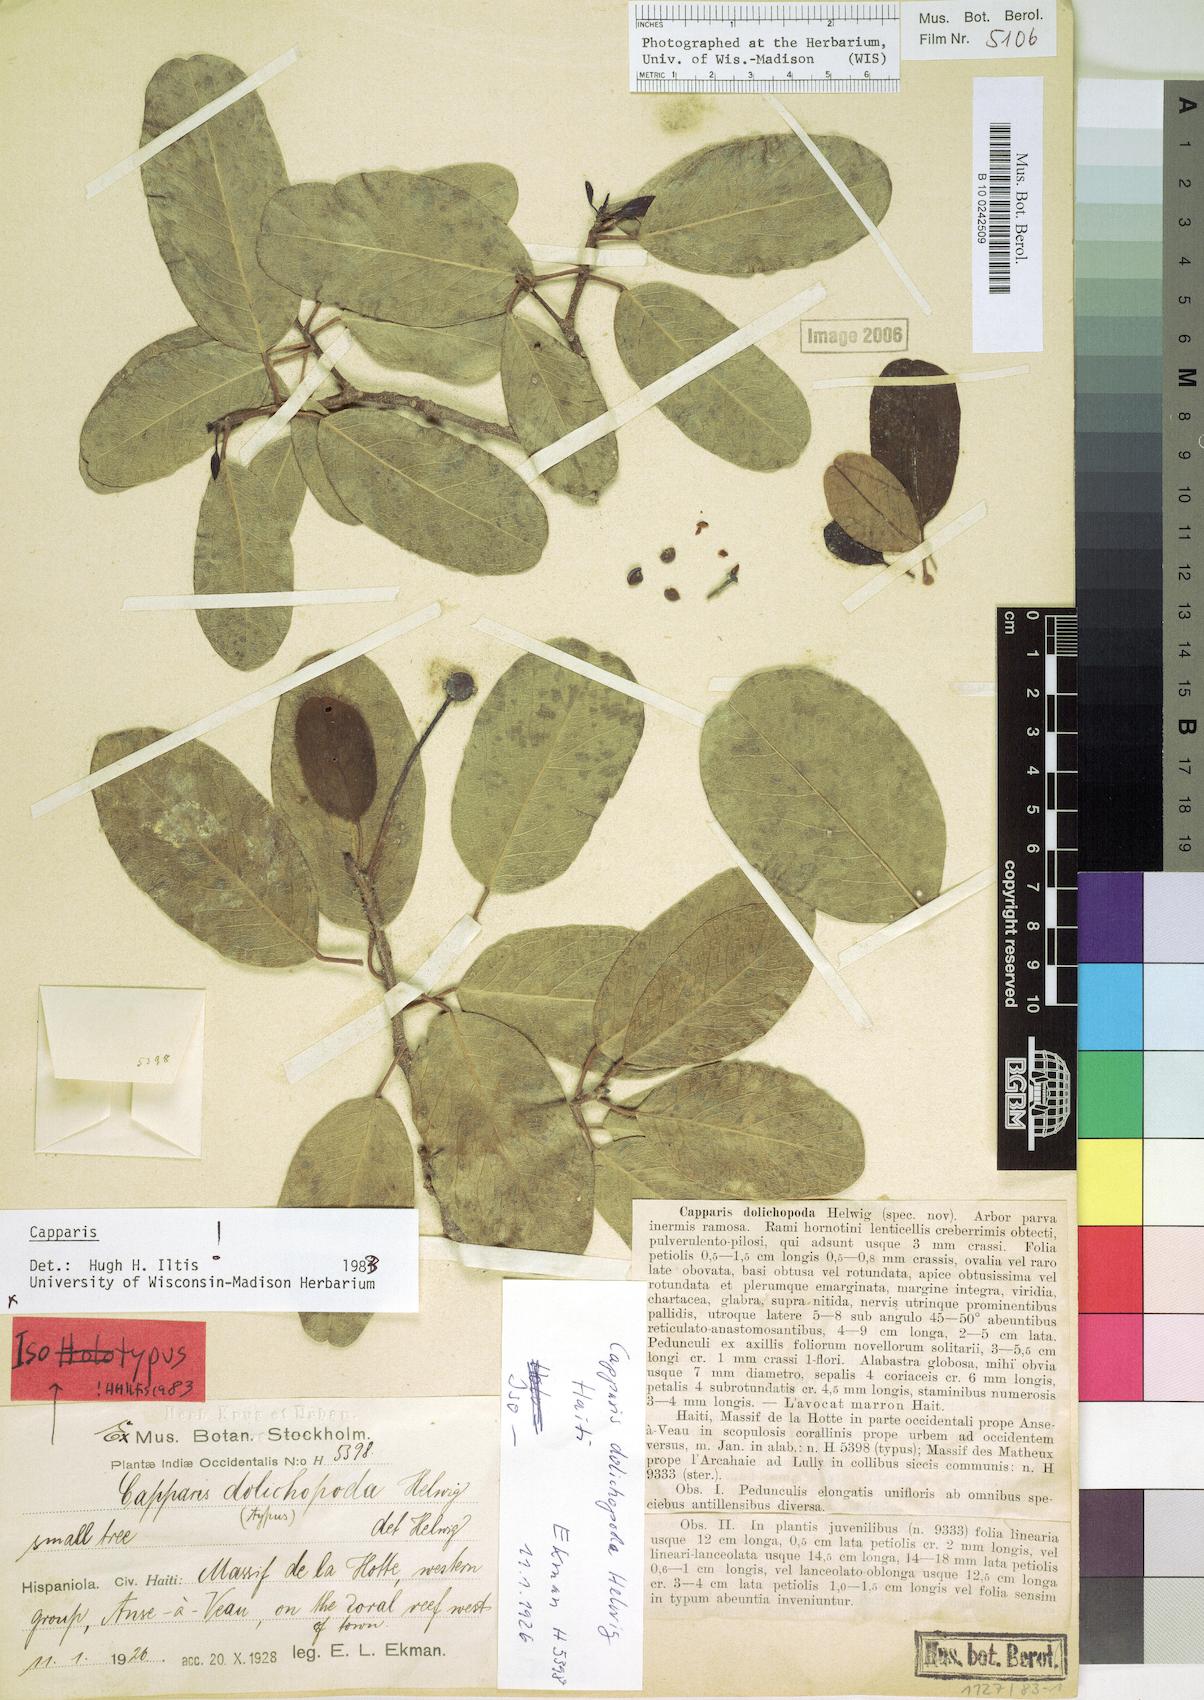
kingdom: Plantae
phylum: Tracheophyta
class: Magnoliopsida
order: Brassicales
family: Capparaceae
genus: Hispaniolanthus
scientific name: Hispaniolanthus dolichopodus
